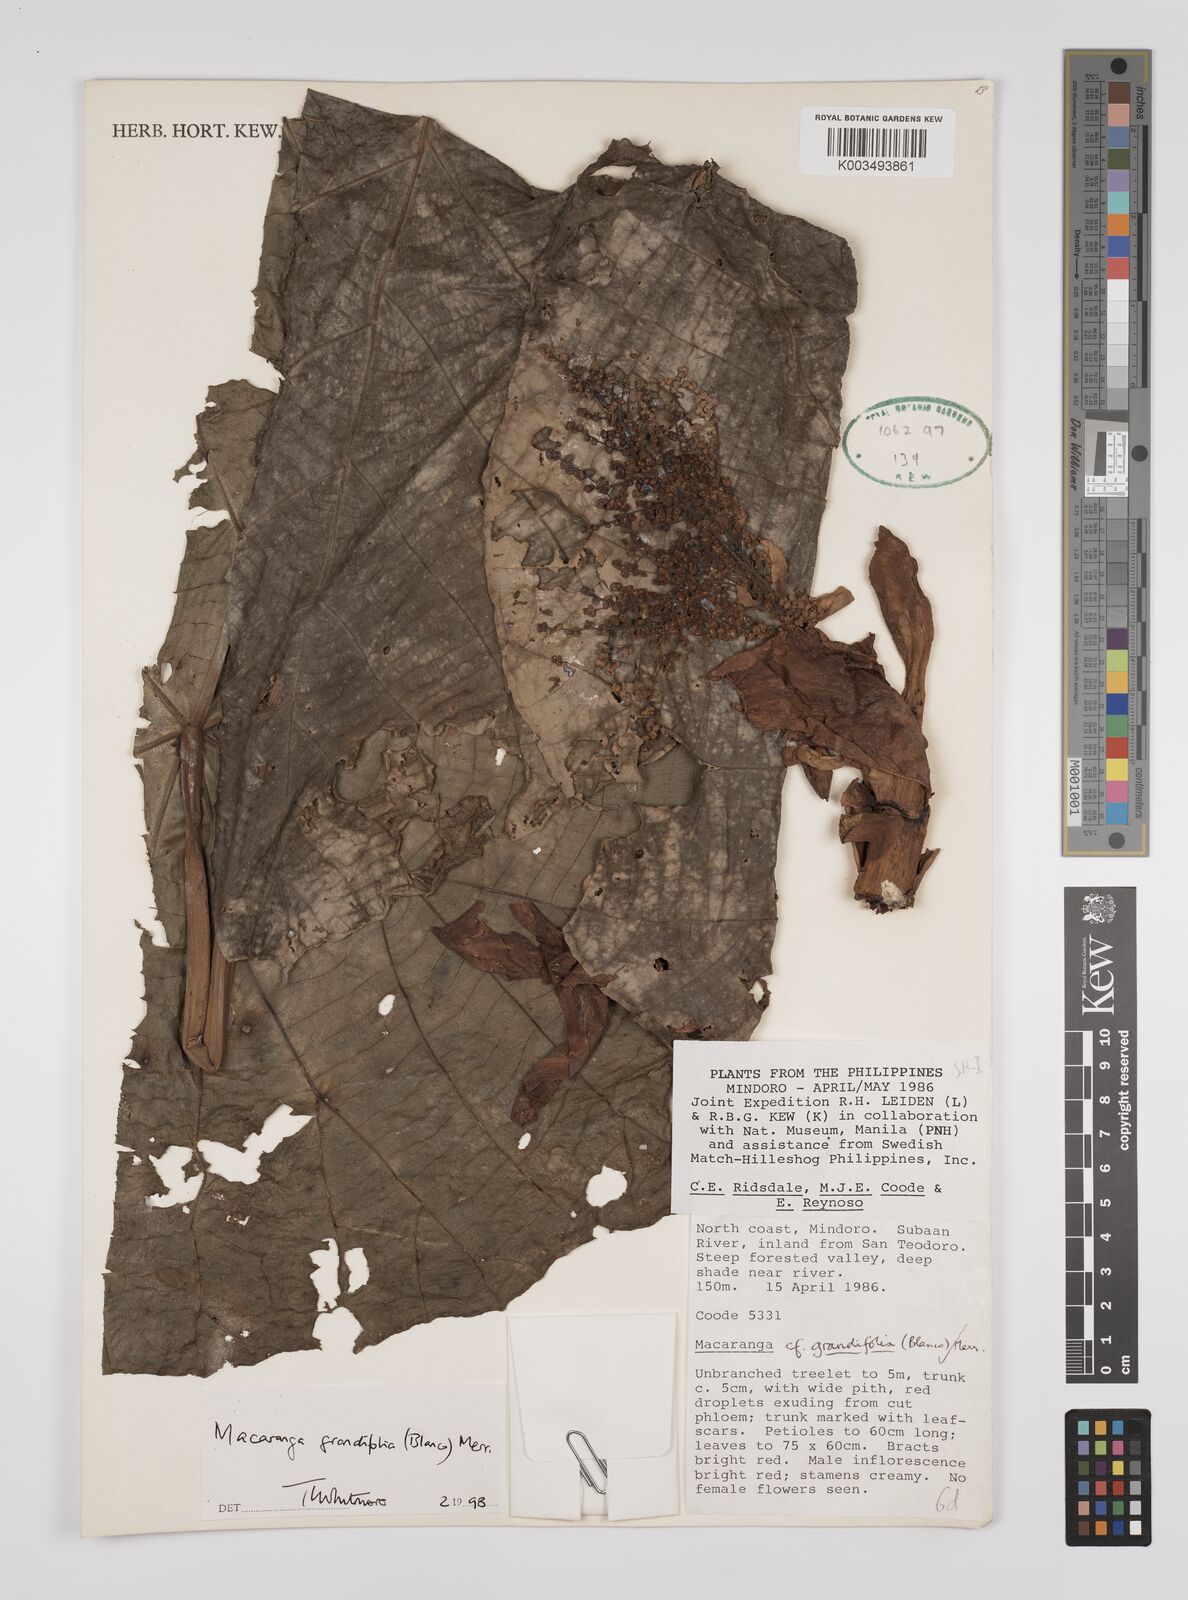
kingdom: Plantae
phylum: Tracheophyta
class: Magnoliopsida
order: Malpighiales
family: Euphorbiaceae
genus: Macaranga
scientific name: Macaranga grandifolia
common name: Coraltree
